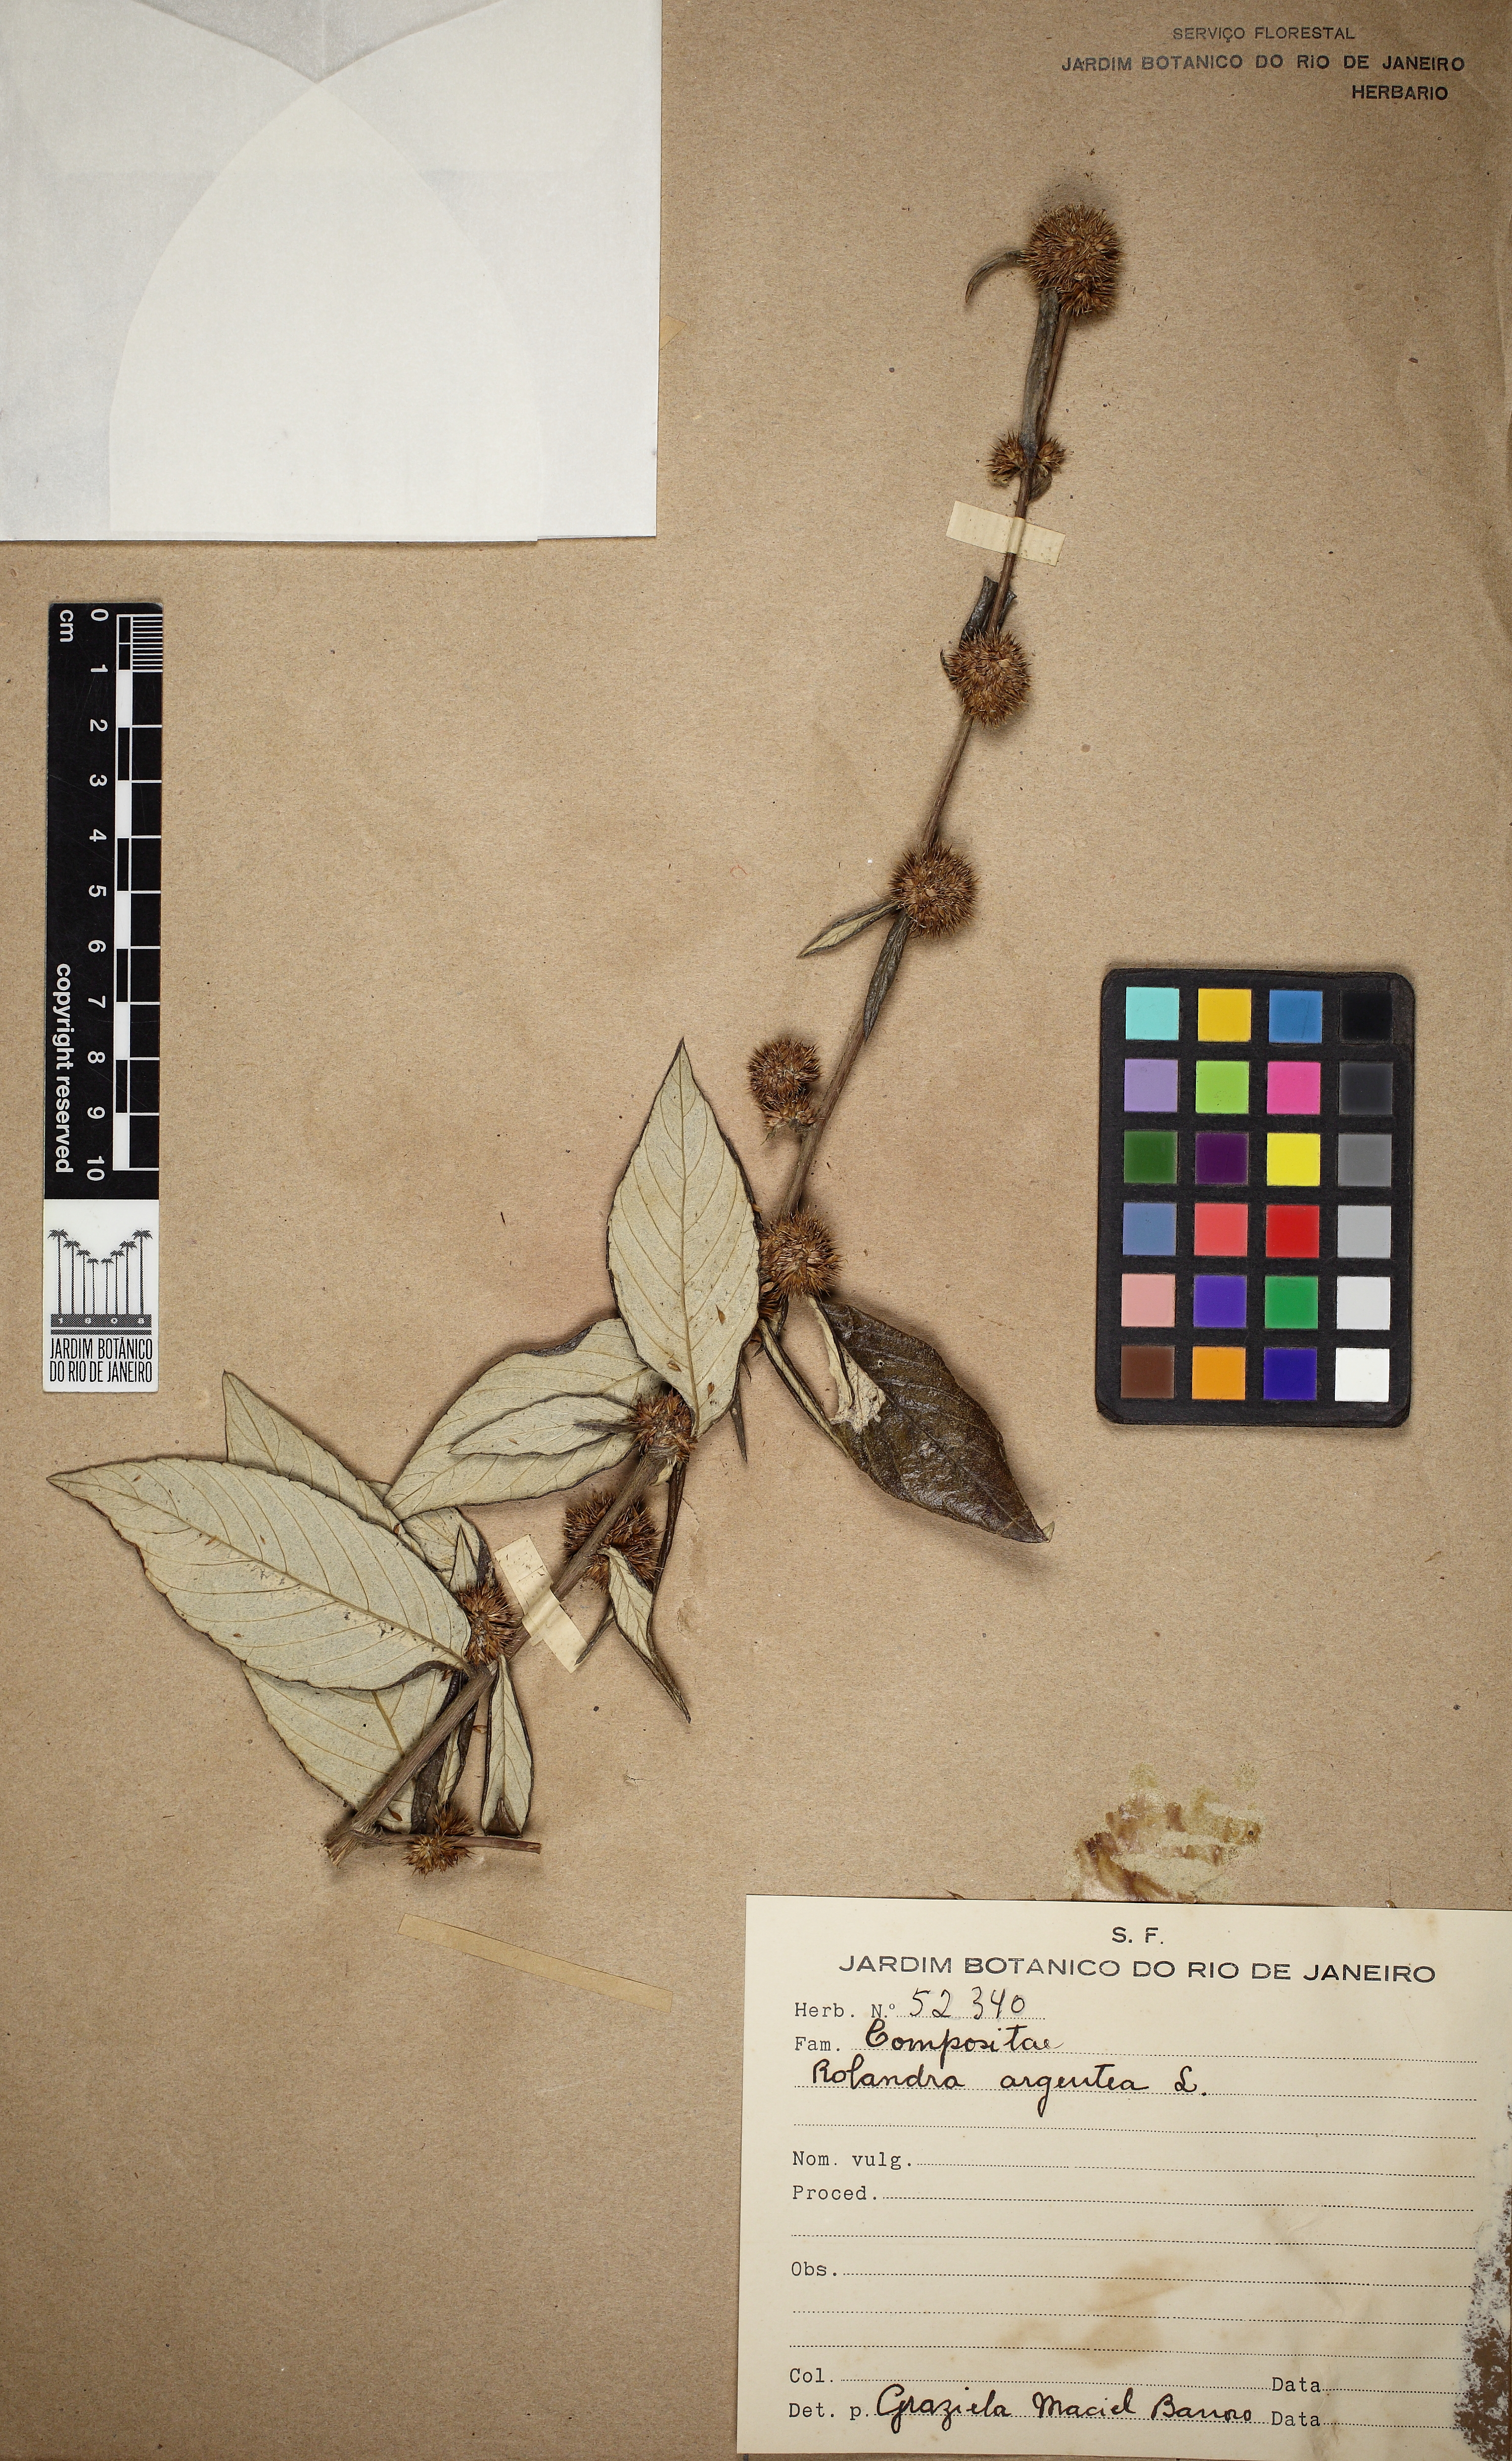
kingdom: Plantae
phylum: Tracheophyta
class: Magnoliopsida
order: Asterales
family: Asteraceae
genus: Rolandra
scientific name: Rolandra fruticosa
